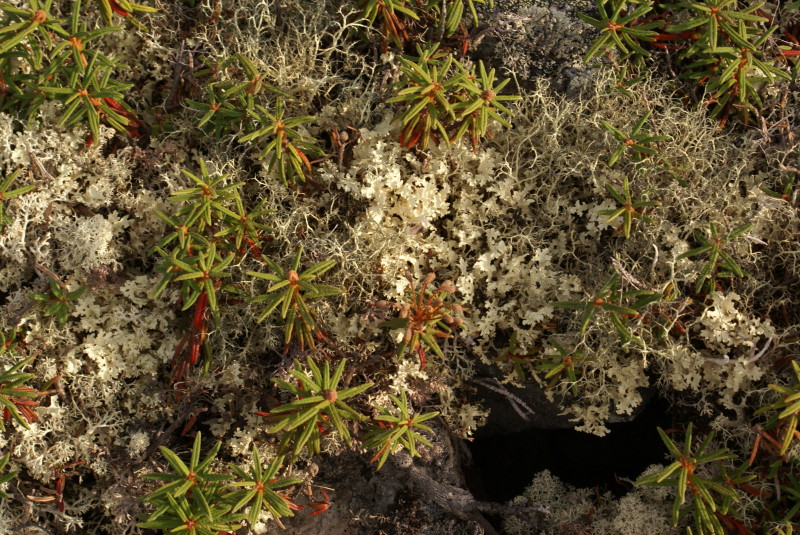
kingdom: Plantae
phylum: Tracheophyta
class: Magnoliopsida
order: Ericales
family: Ericaceae
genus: Rhododendron
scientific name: Rhododendron tomentosum
